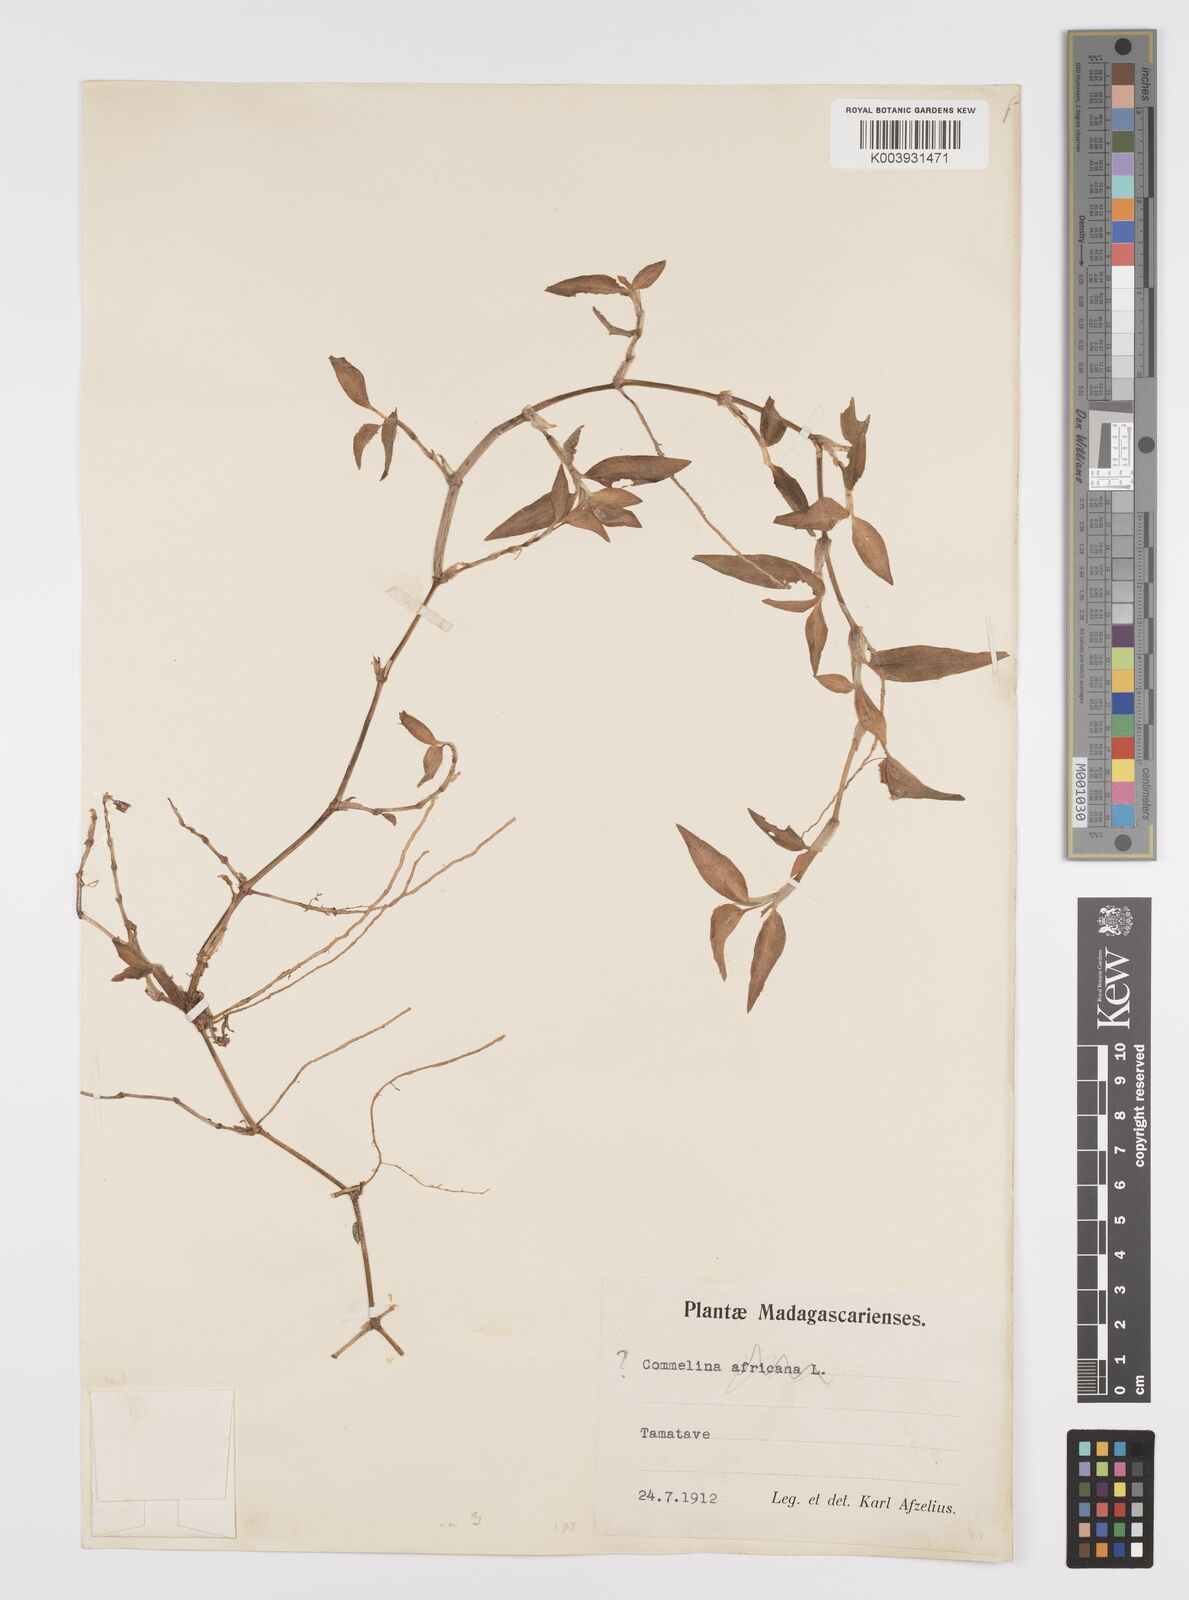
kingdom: Plantae
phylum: Tracheophyta
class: Liliopsida
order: Commelinales
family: Commelinaceae
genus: Commelina
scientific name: Commelina
